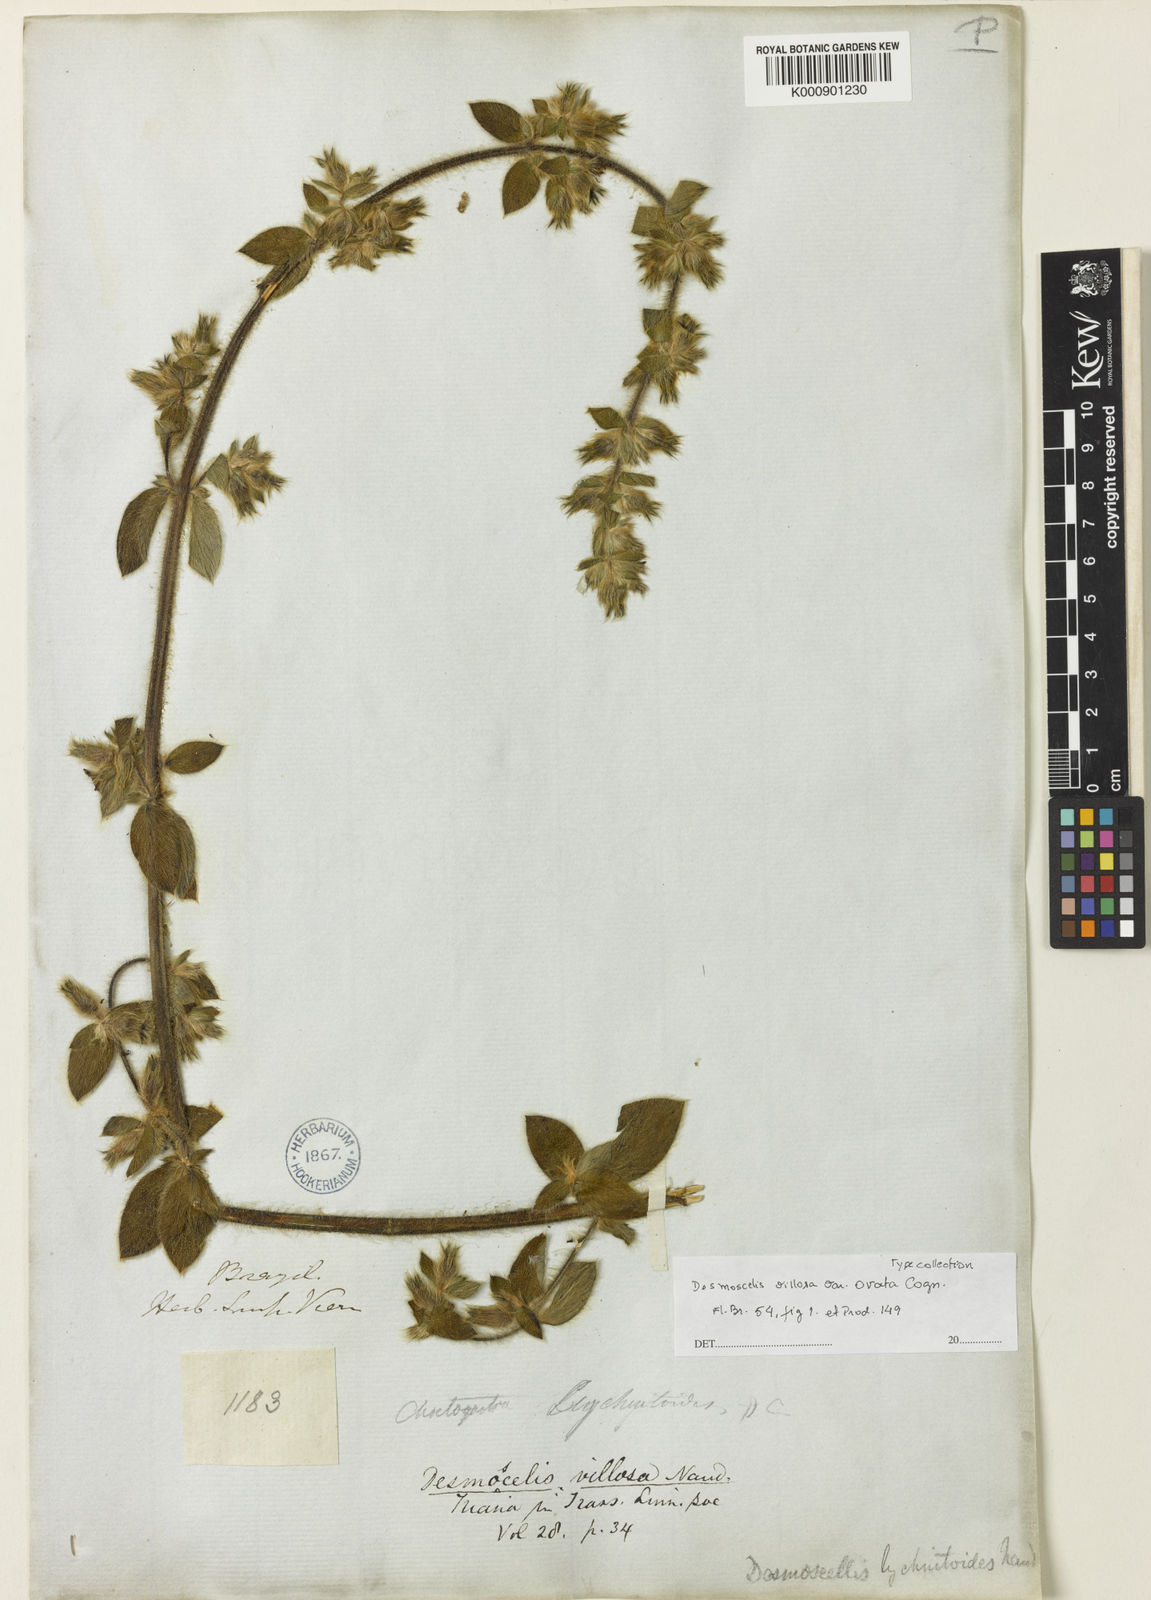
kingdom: Plantae
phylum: Tracheophyta
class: Magnoliopsida
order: Myrtales
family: Melastomataceae
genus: Desmoscelis
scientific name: Desmoscelis villosa
